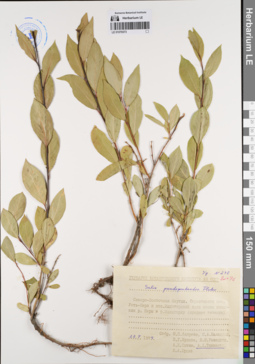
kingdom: Plantae
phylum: Tracheophyta
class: Magnoliopsida
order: Malpighiales
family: Salicaceae
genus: Salix
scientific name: Salix pseudopentandra
